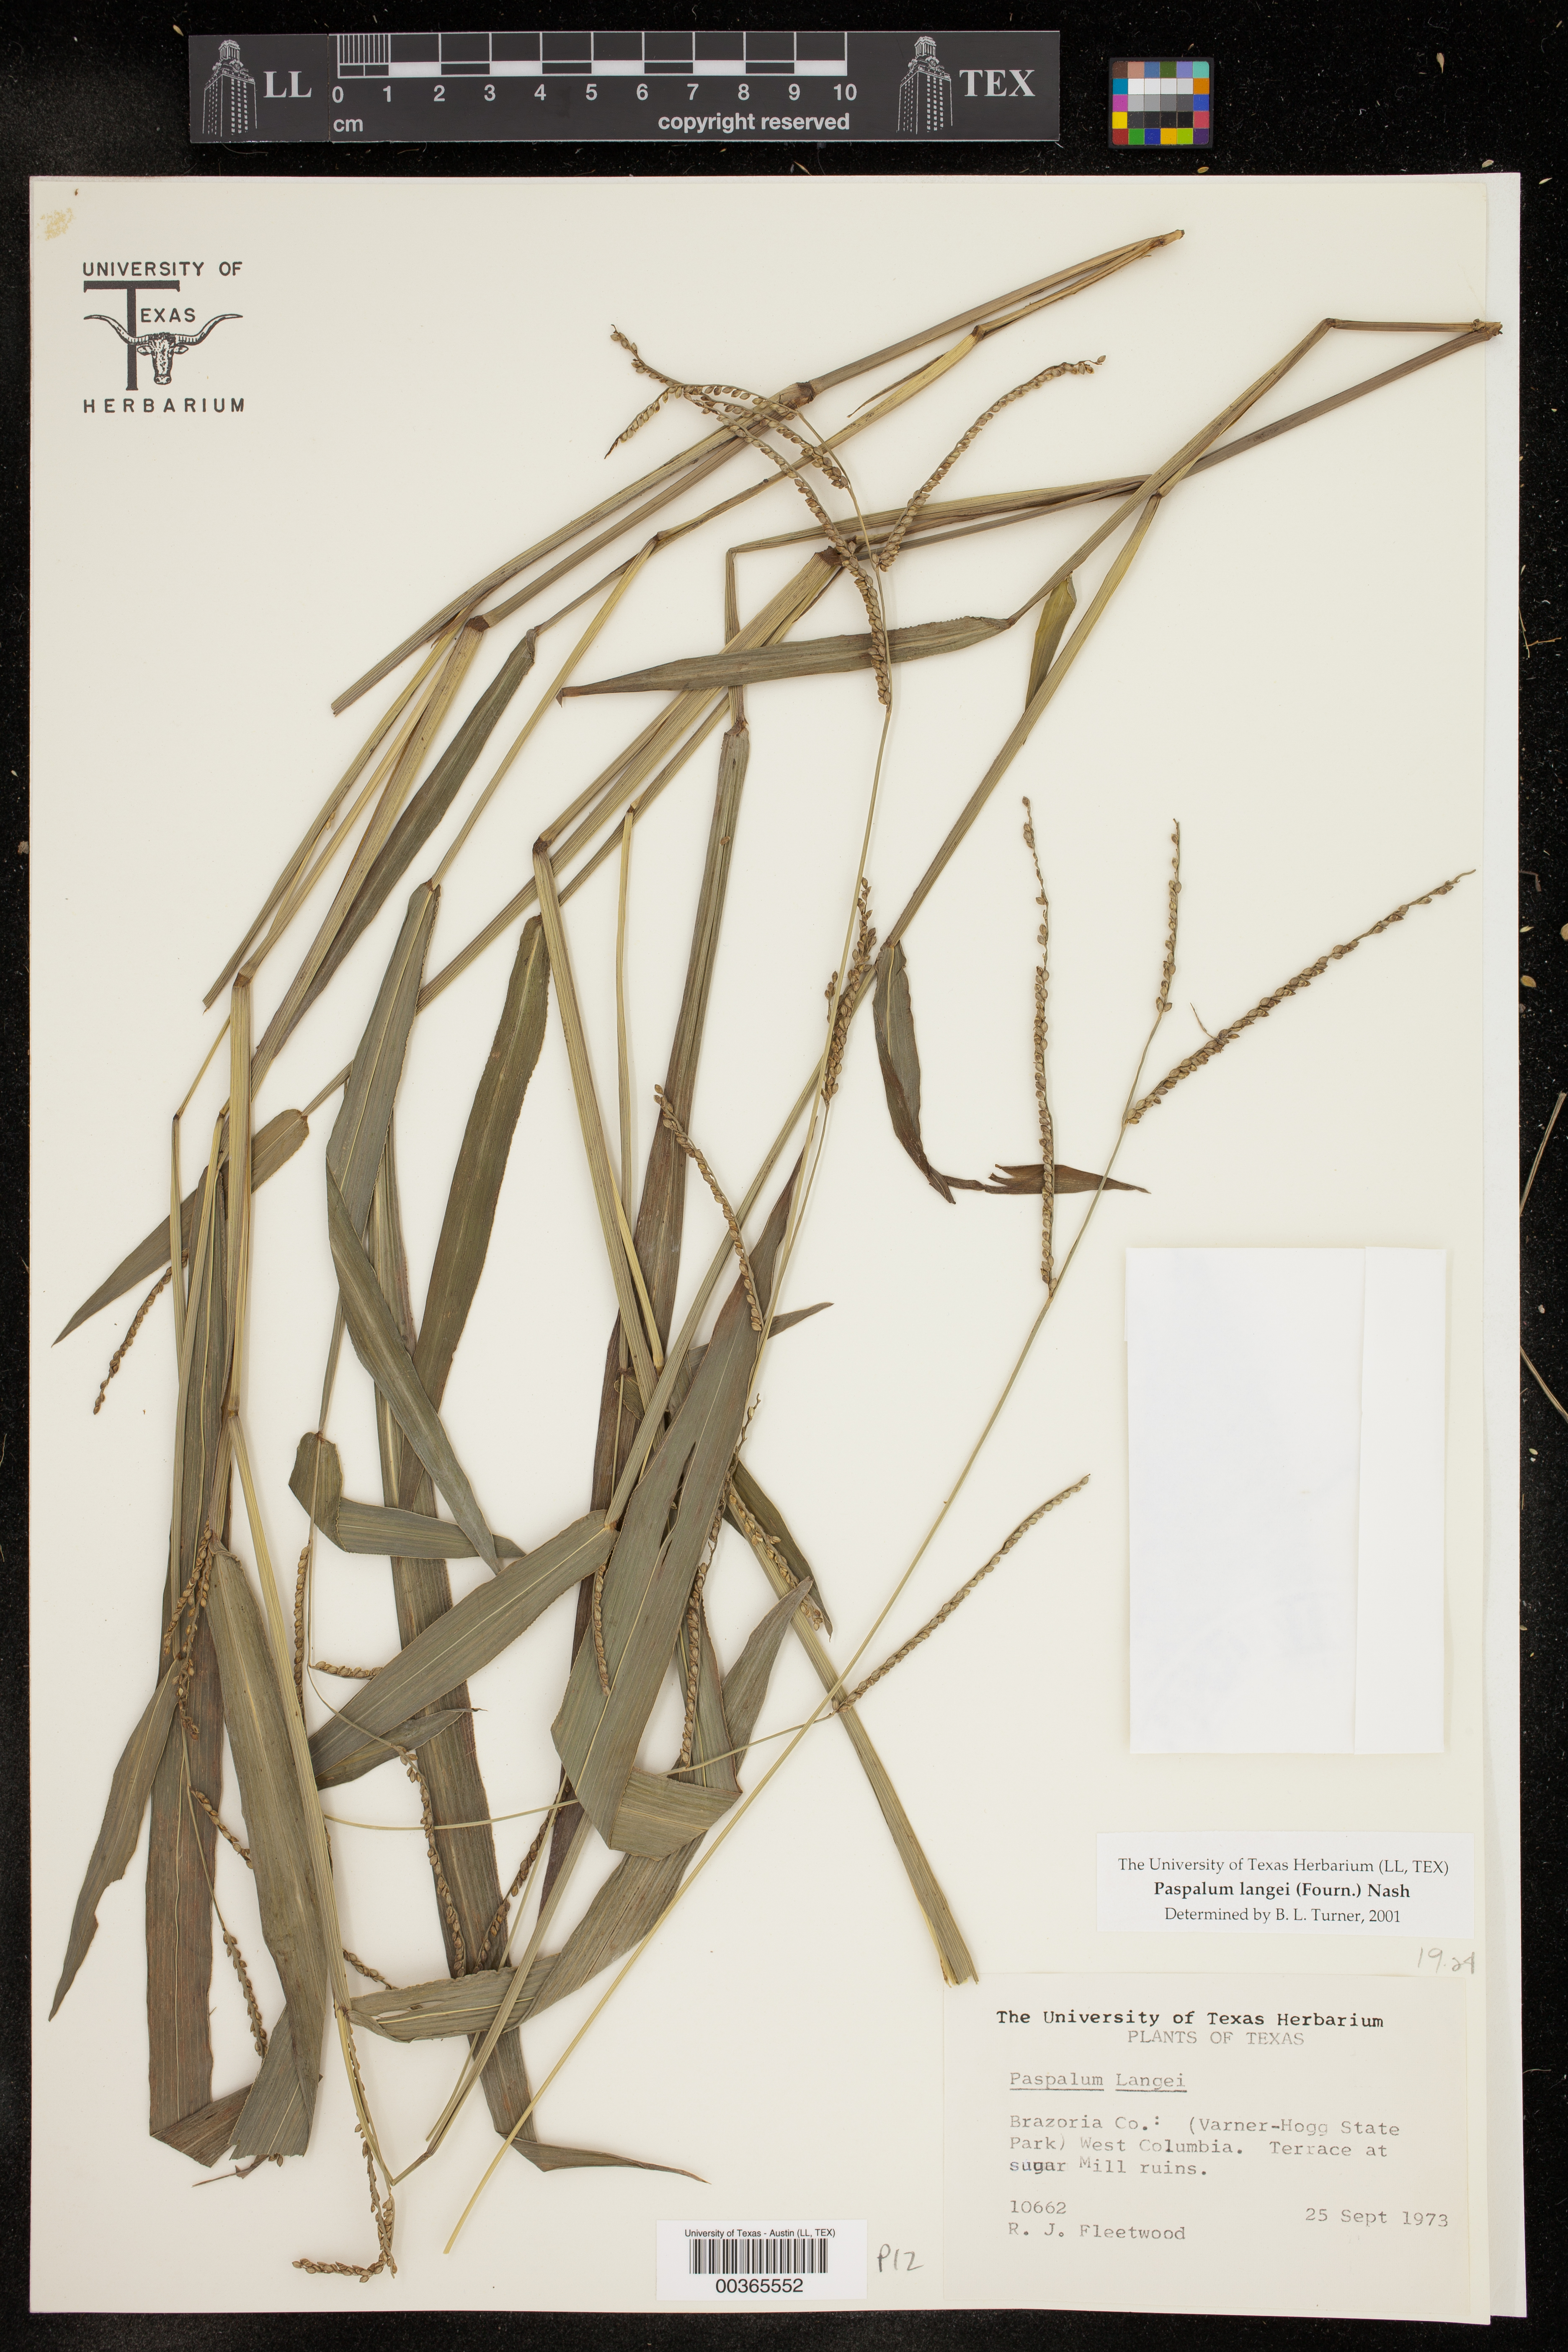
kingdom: Plantae
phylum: Tracheophyta
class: Liliopsida
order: Poales
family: Poaceae
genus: Paspalum
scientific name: Paspalum langei
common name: Rusty-seed paspalum
